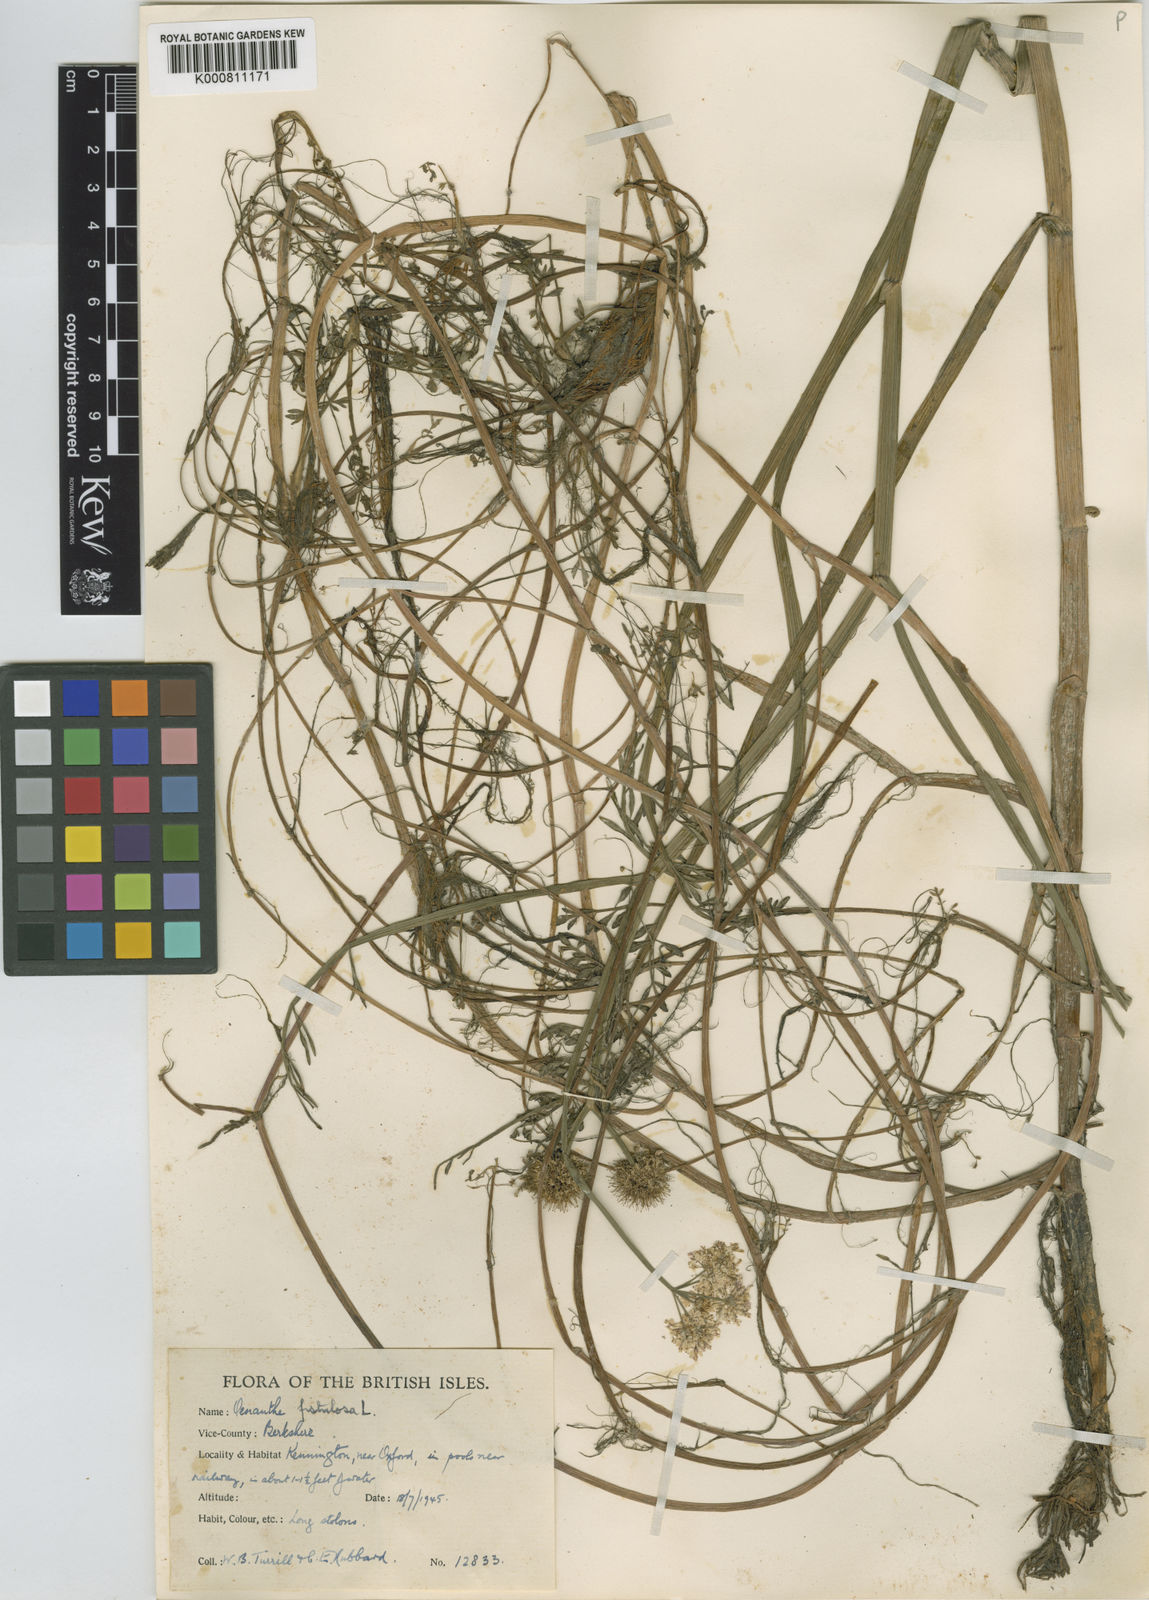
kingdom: Plantae
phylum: Tracheophyta
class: Magnoliopsida
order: Apiales
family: Apiaceae
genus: Oenanthe
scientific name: Oenanthe fistulosa
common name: Tubular water-dropwort
